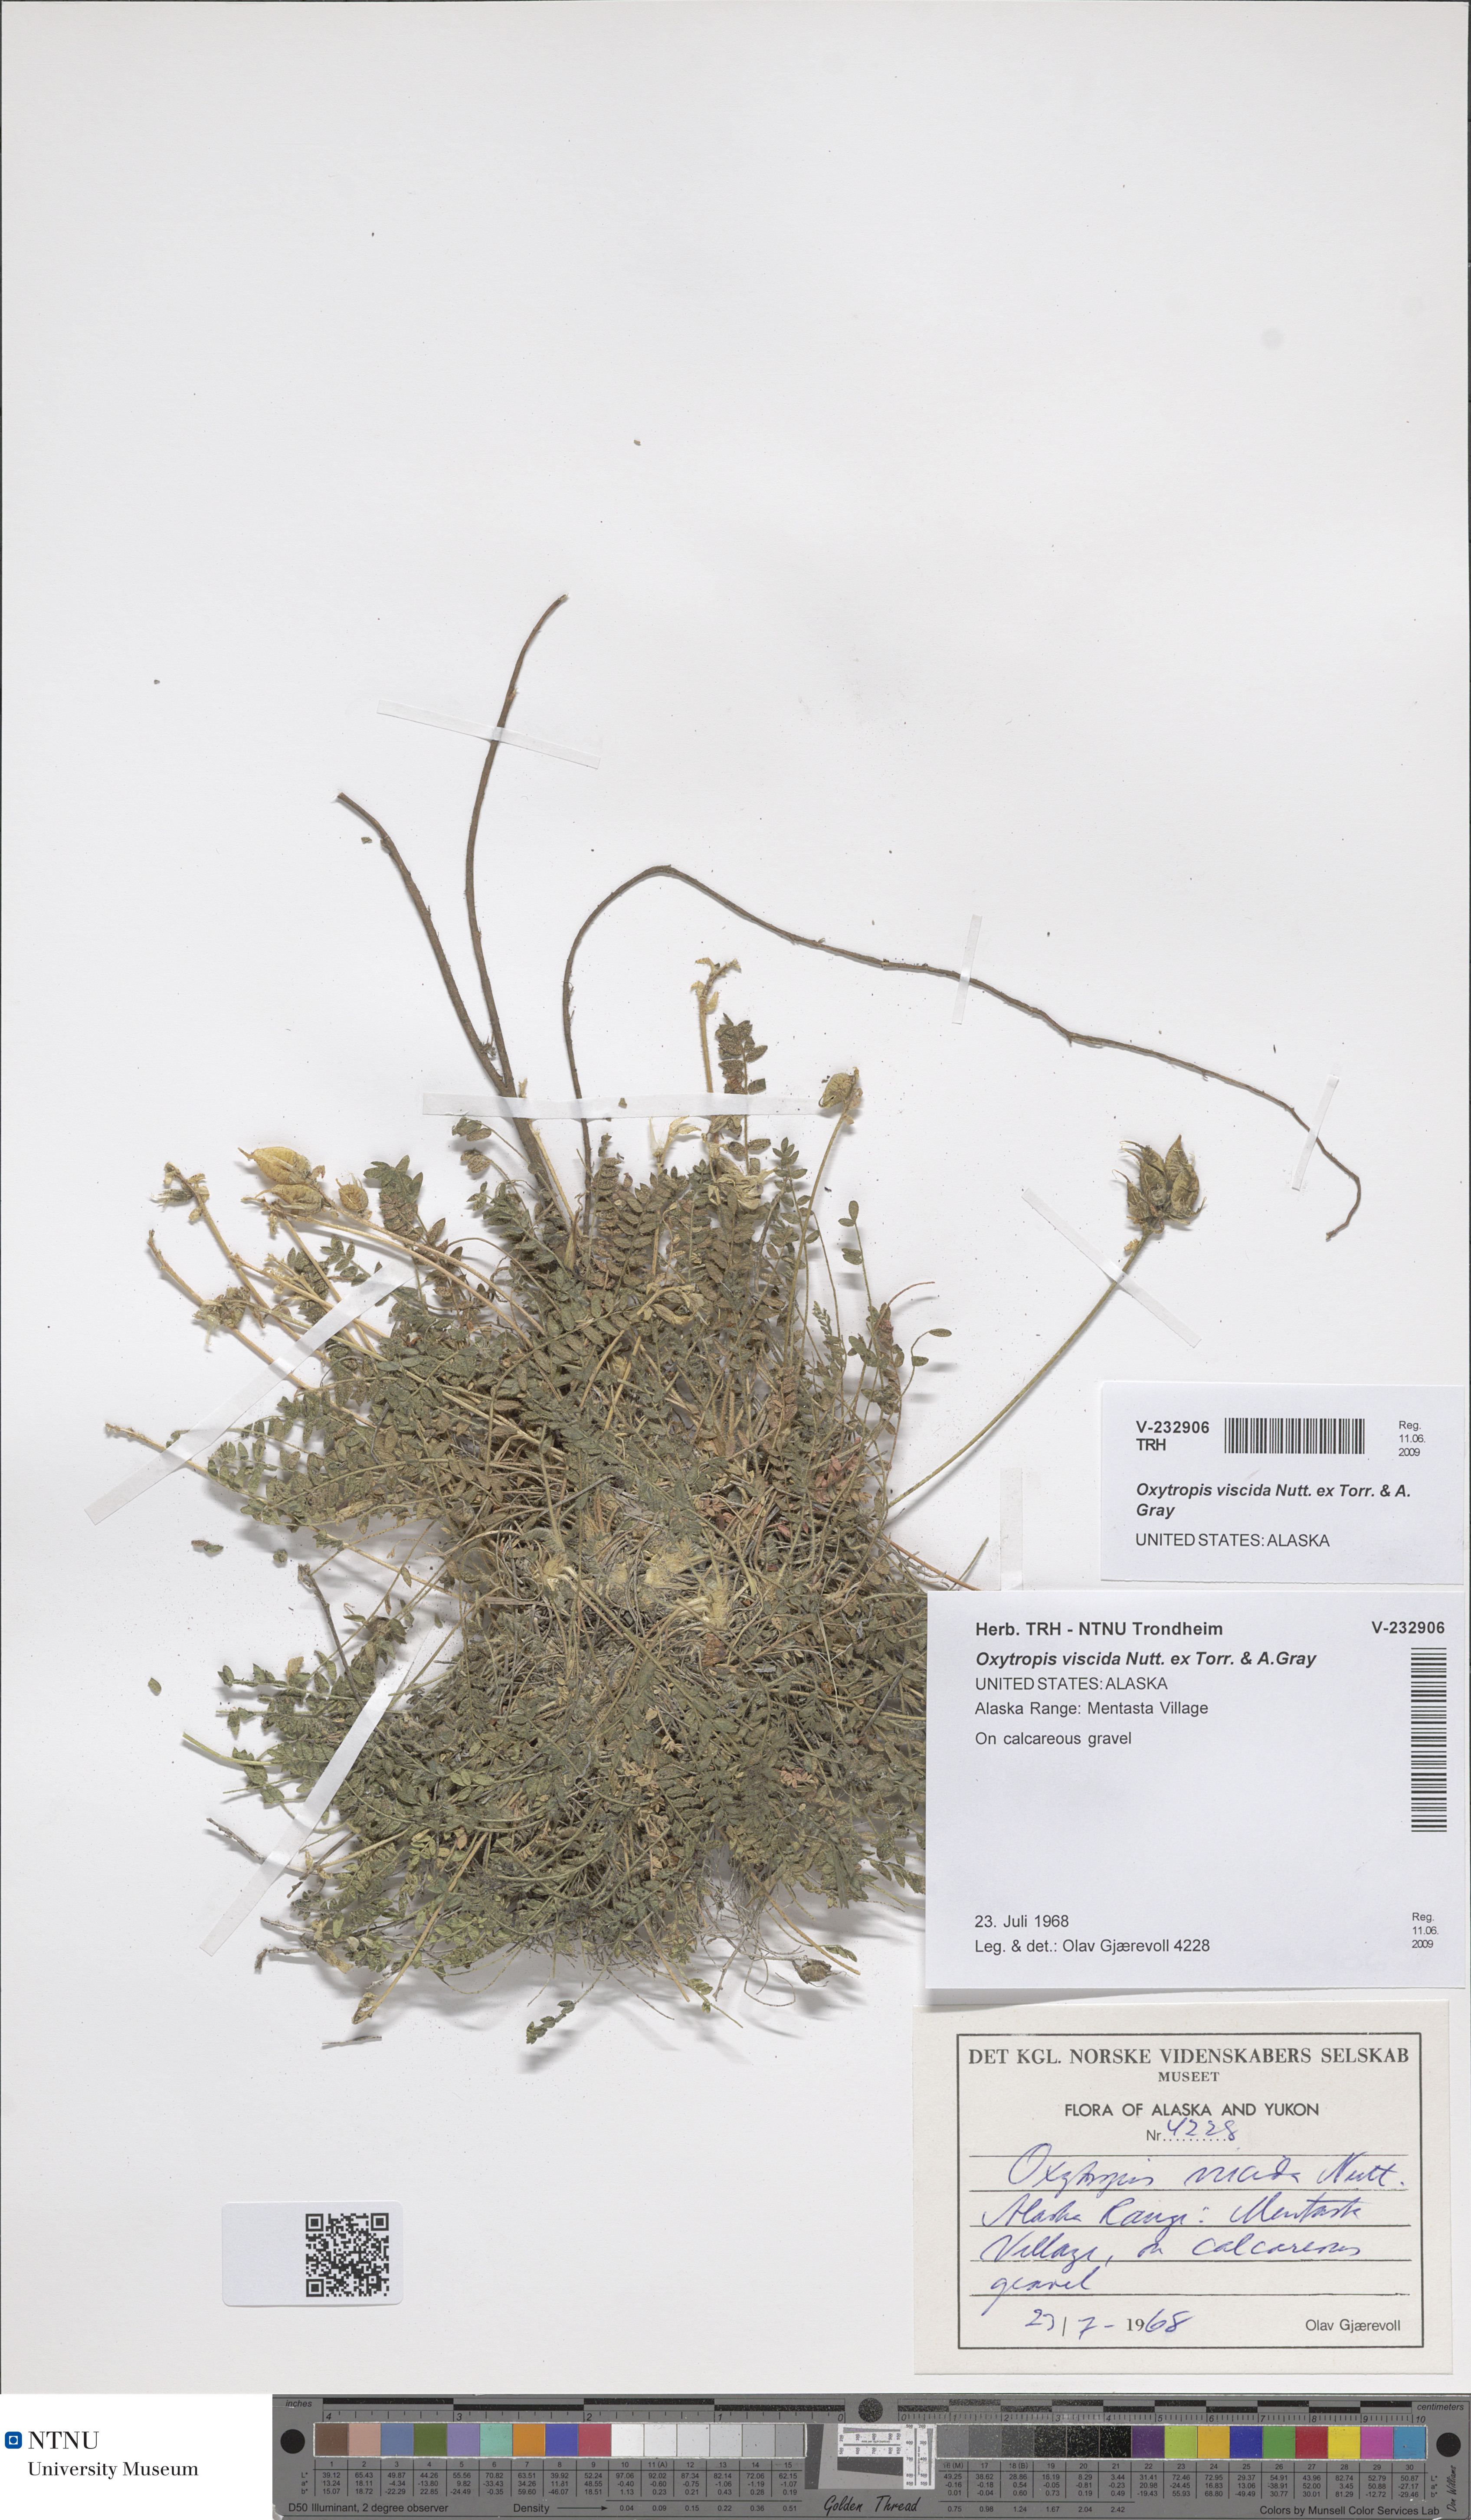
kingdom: Plantae
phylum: Tracheophyta
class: Magnoliopsida
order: Fabales
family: Fabaceae
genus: Oxytropis
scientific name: Oxytropis viscida
